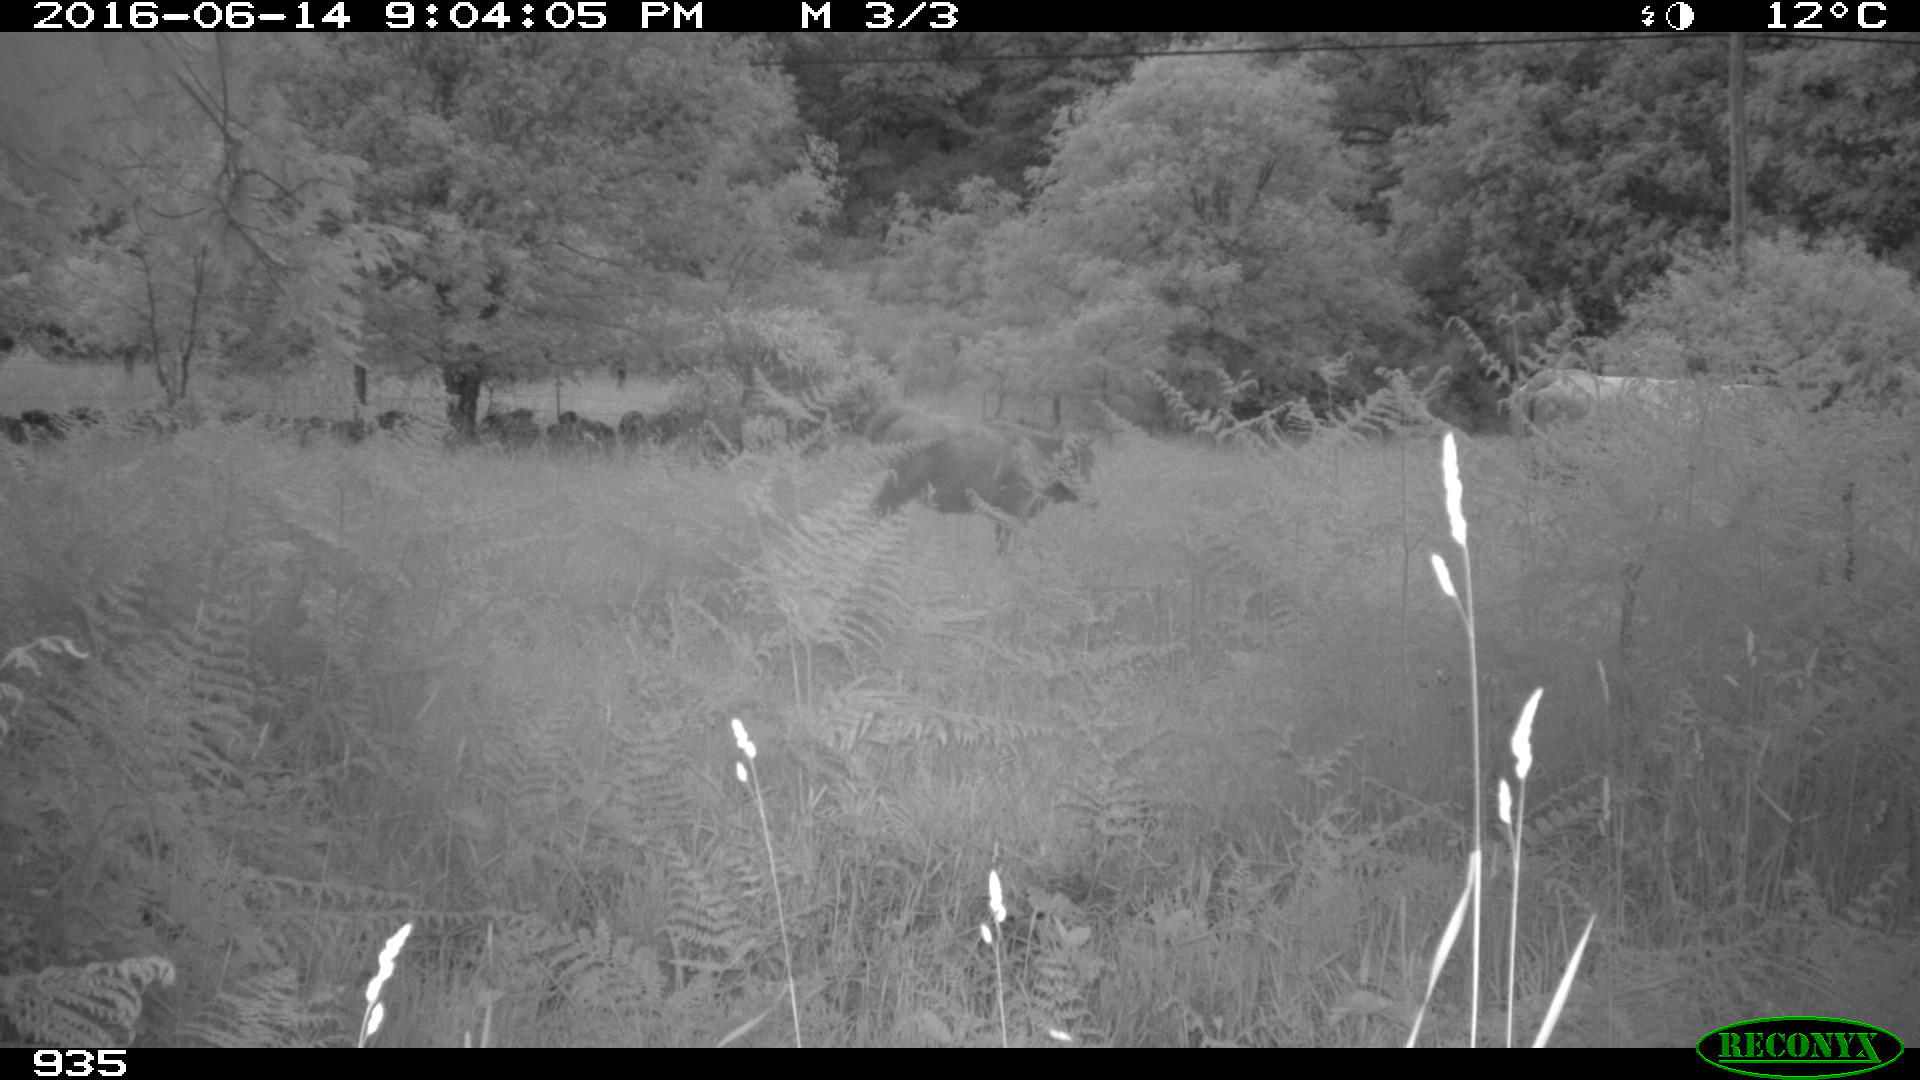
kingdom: Animalia
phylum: Chordata
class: Mammalia
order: Artiodactyla
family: Bovidae
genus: Bos
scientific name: Bos taurus
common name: Domesticated cattle
